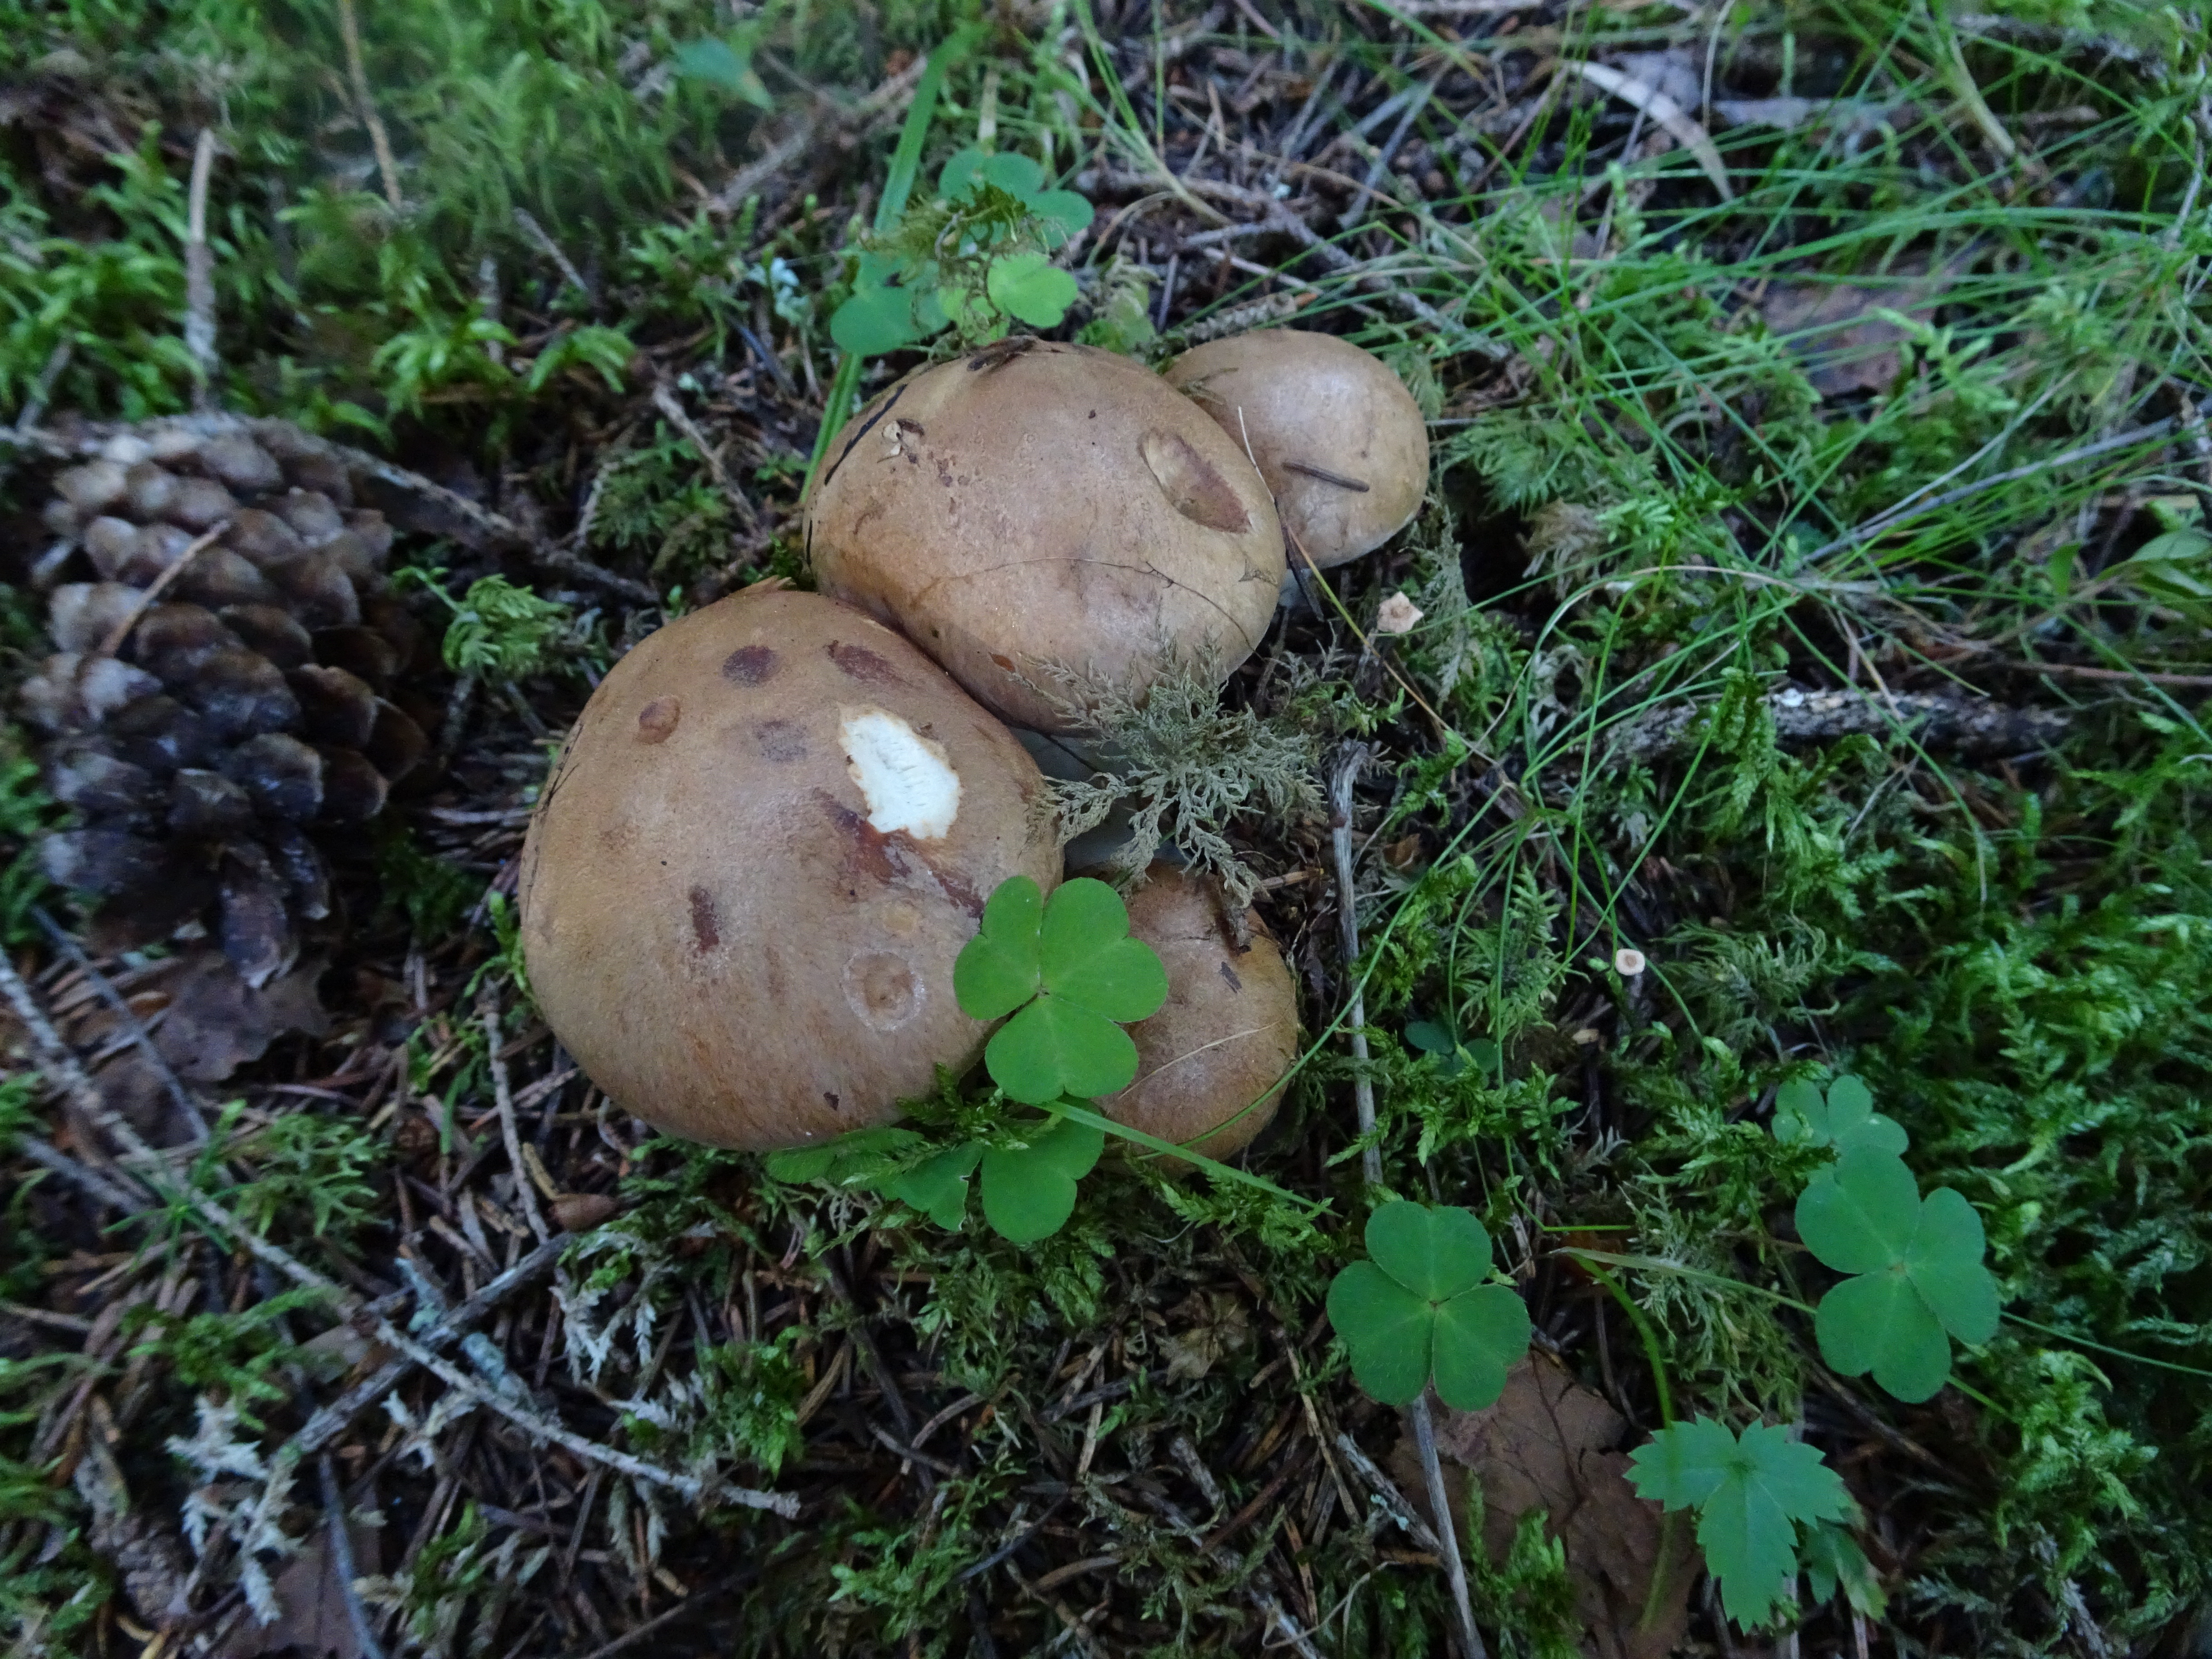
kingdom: Fungi
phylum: Basidiomycota
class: Agaricomycetes
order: Agaricales
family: Cortinariaceae
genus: Cortinarius
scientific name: Cortinarius
